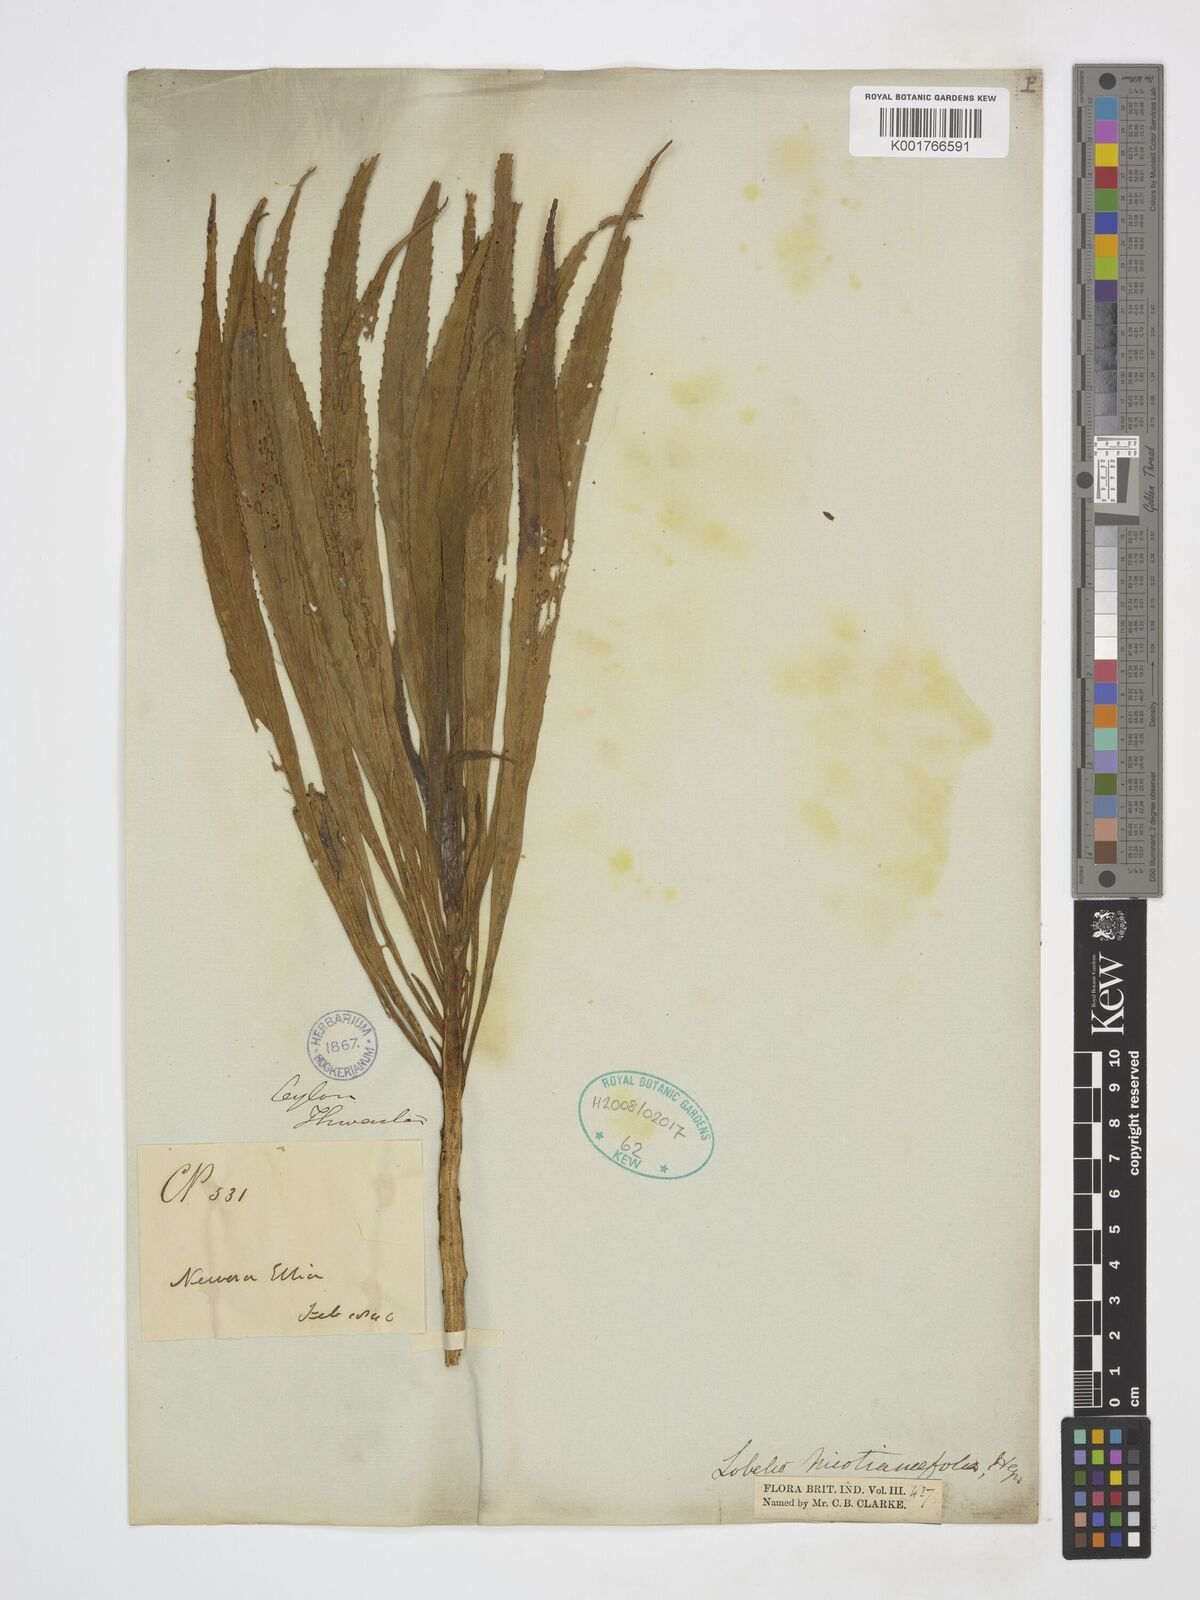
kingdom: Plantae
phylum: Tracheophyta
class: Magnoliopsida
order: Asterales
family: Campanulaceae
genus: Lobelia
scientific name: Lobelia nicotianifolia
